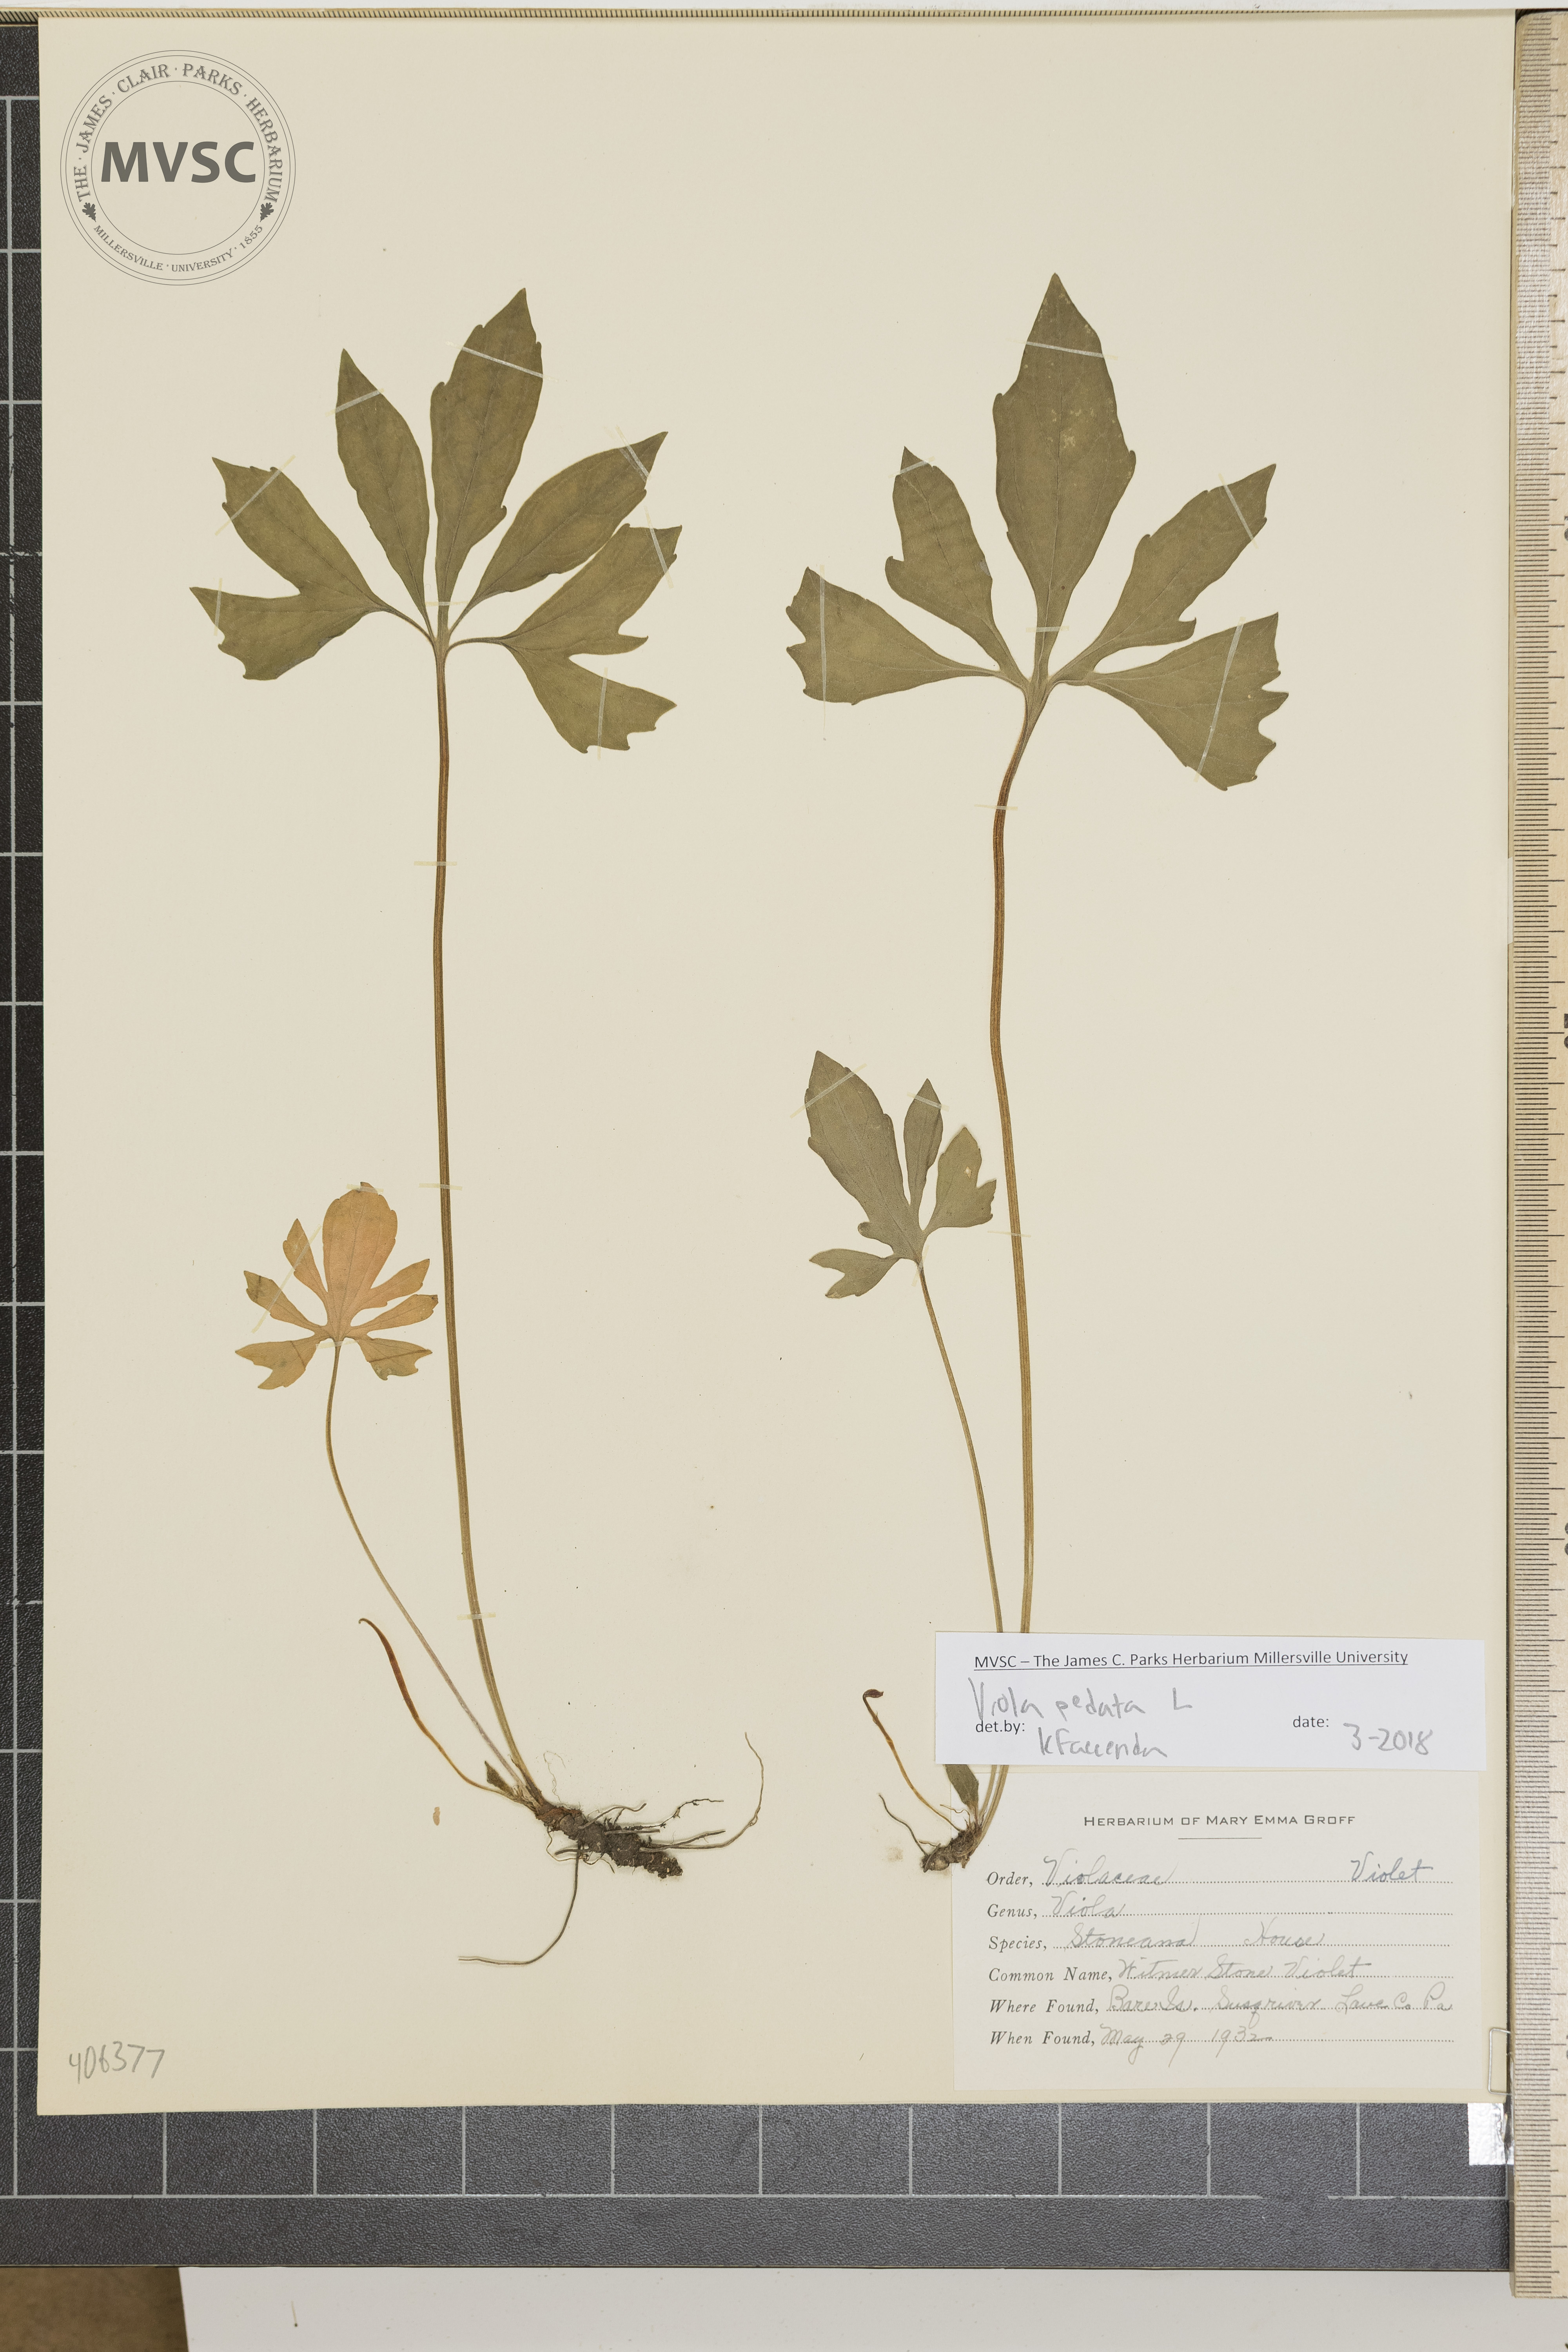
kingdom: Plantae
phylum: Tracheophyta
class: Magnoliopsida
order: Malpighiales
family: Violaceae
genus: Viola
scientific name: Viola pedata
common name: Pansy violet
